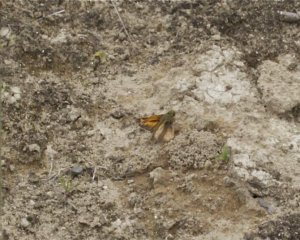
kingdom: Animalia
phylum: Arthropoda
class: Insecta
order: Lepidoptera
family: Hesperiidae
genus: Hesperia
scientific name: Hesperia sassacus
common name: Sassacus Skipper
